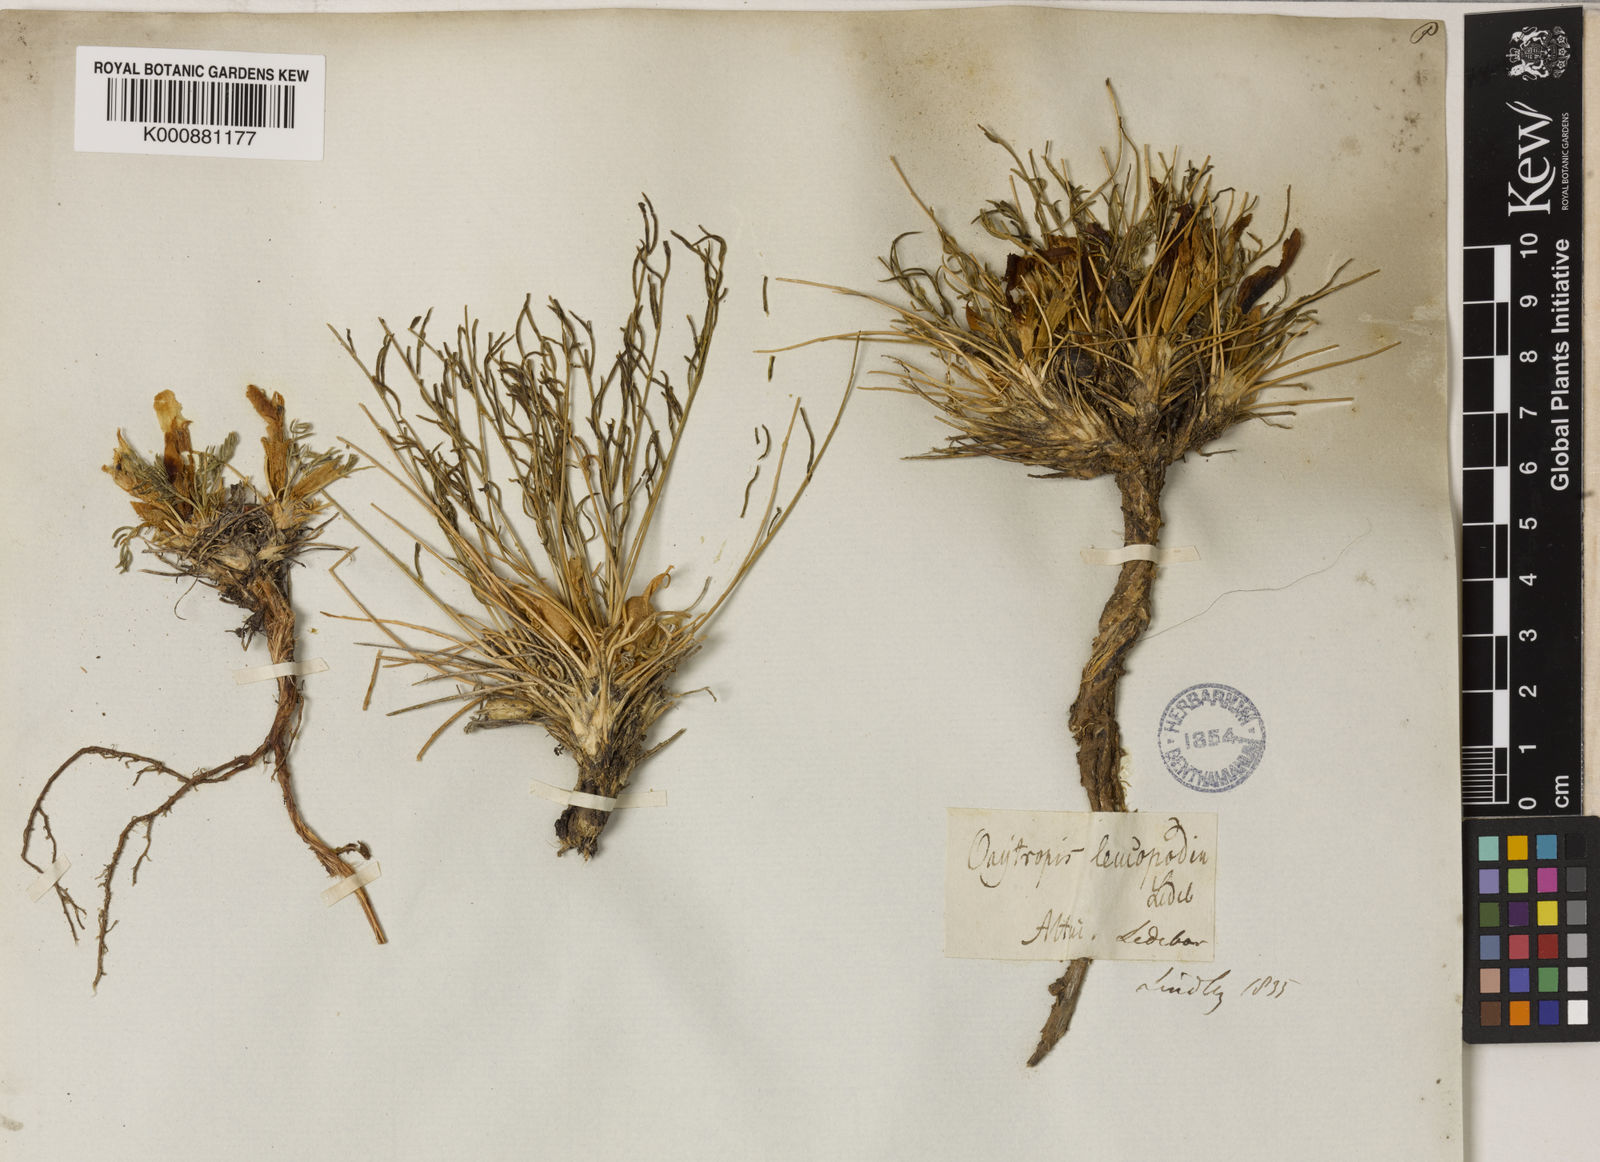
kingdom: Plantae
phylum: Tracheophyta
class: Magnoliopsida
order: Fabales
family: Fabaceae
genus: Oxytropis
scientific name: Oxytropis squammulosa
